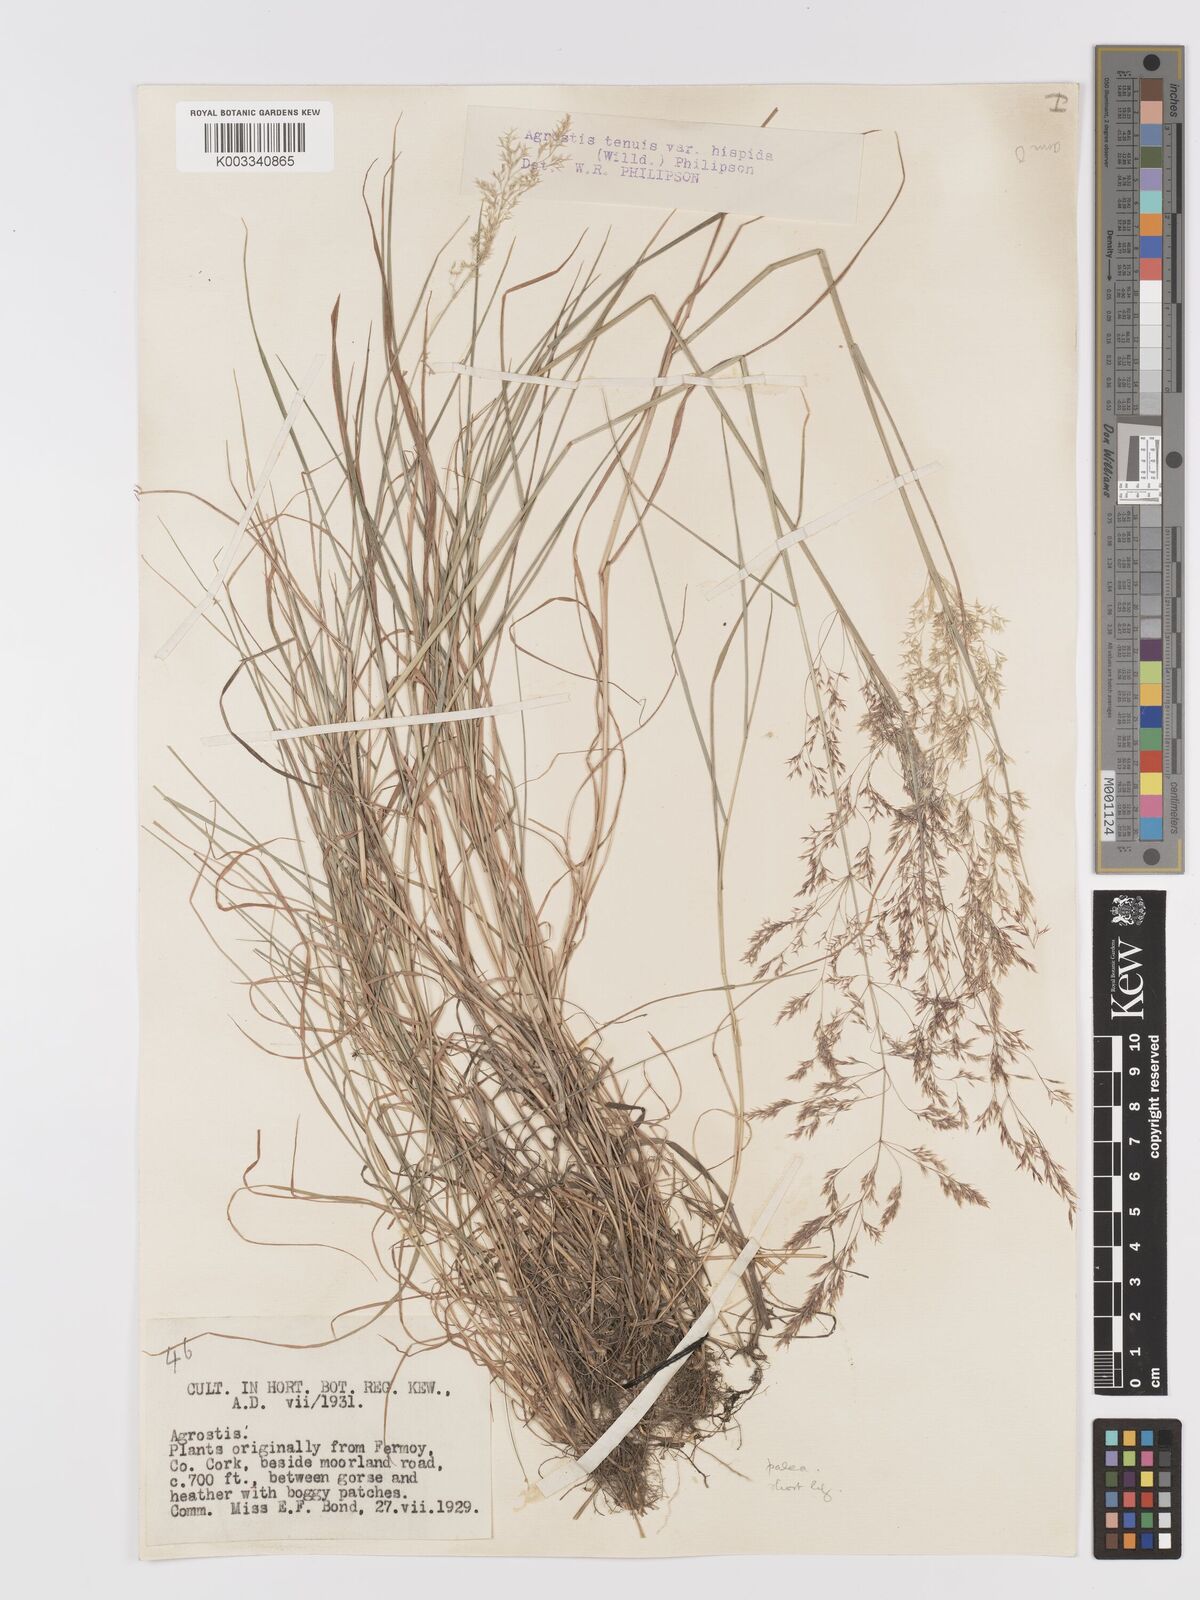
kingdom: Plantae
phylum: Tracheophyta
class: Liliopsida
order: Poales
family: Poaceae
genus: Agrostis
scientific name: Agrostis capillaris
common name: Colonial bentgrass
